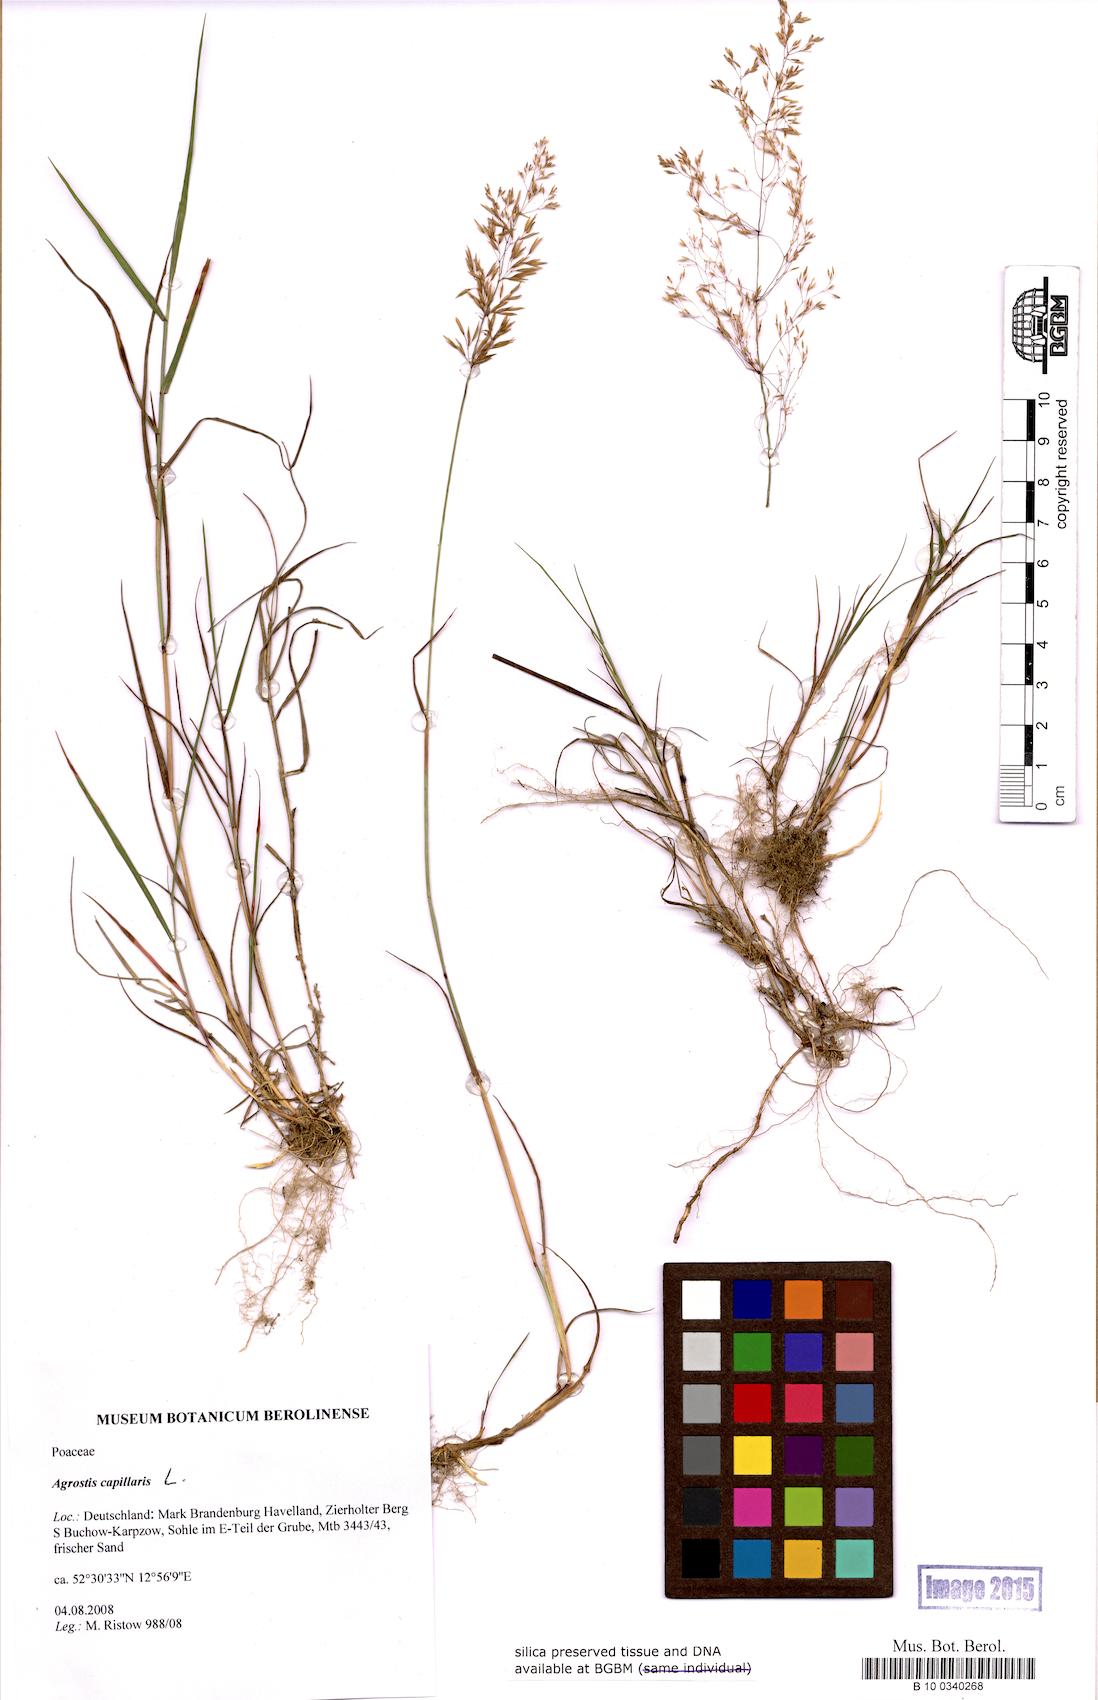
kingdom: Plantae
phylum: Tracheophyta
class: Liliopsida
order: Poales
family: Poaceae
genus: Agrostis
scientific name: Agrostis capillaris
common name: Colonial bentgrass
